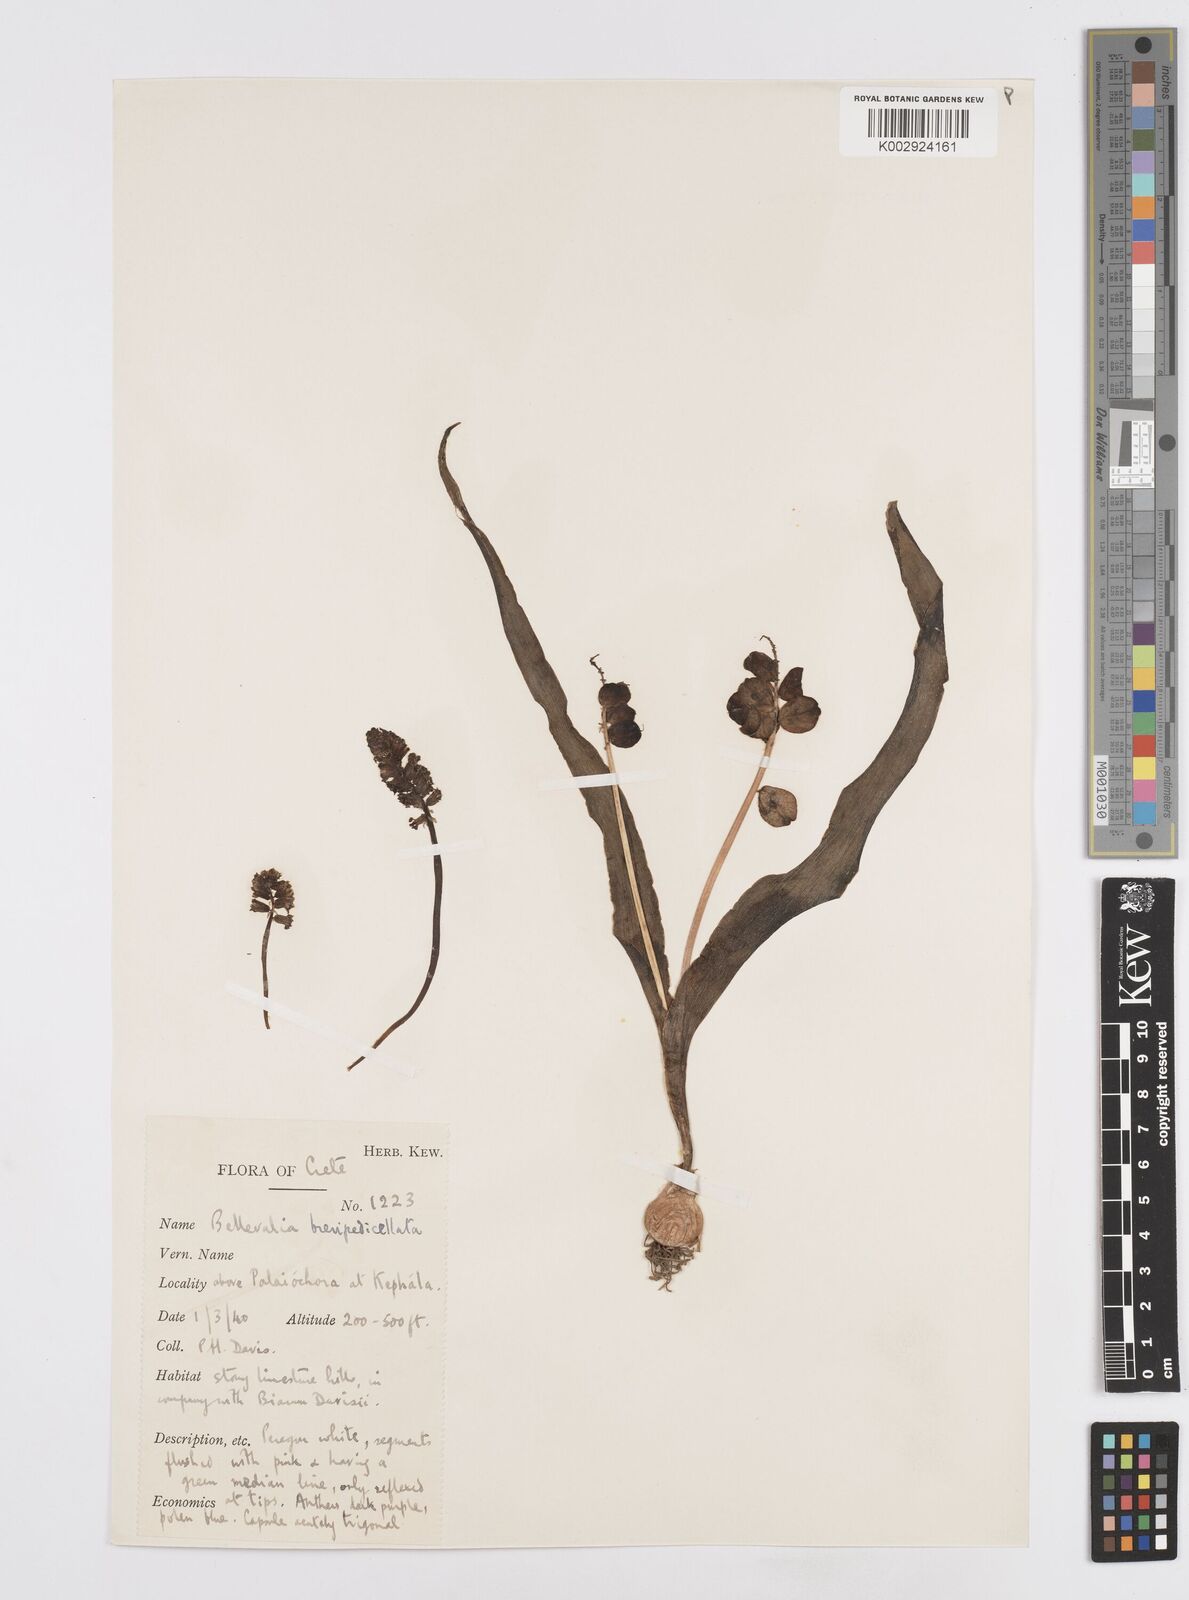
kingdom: Plantae
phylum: Tracheophyta
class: Liliopsida
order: Asparagales
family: Asparagaceae
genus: Bellevalia
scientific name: Bellevalia brevipedicellata
